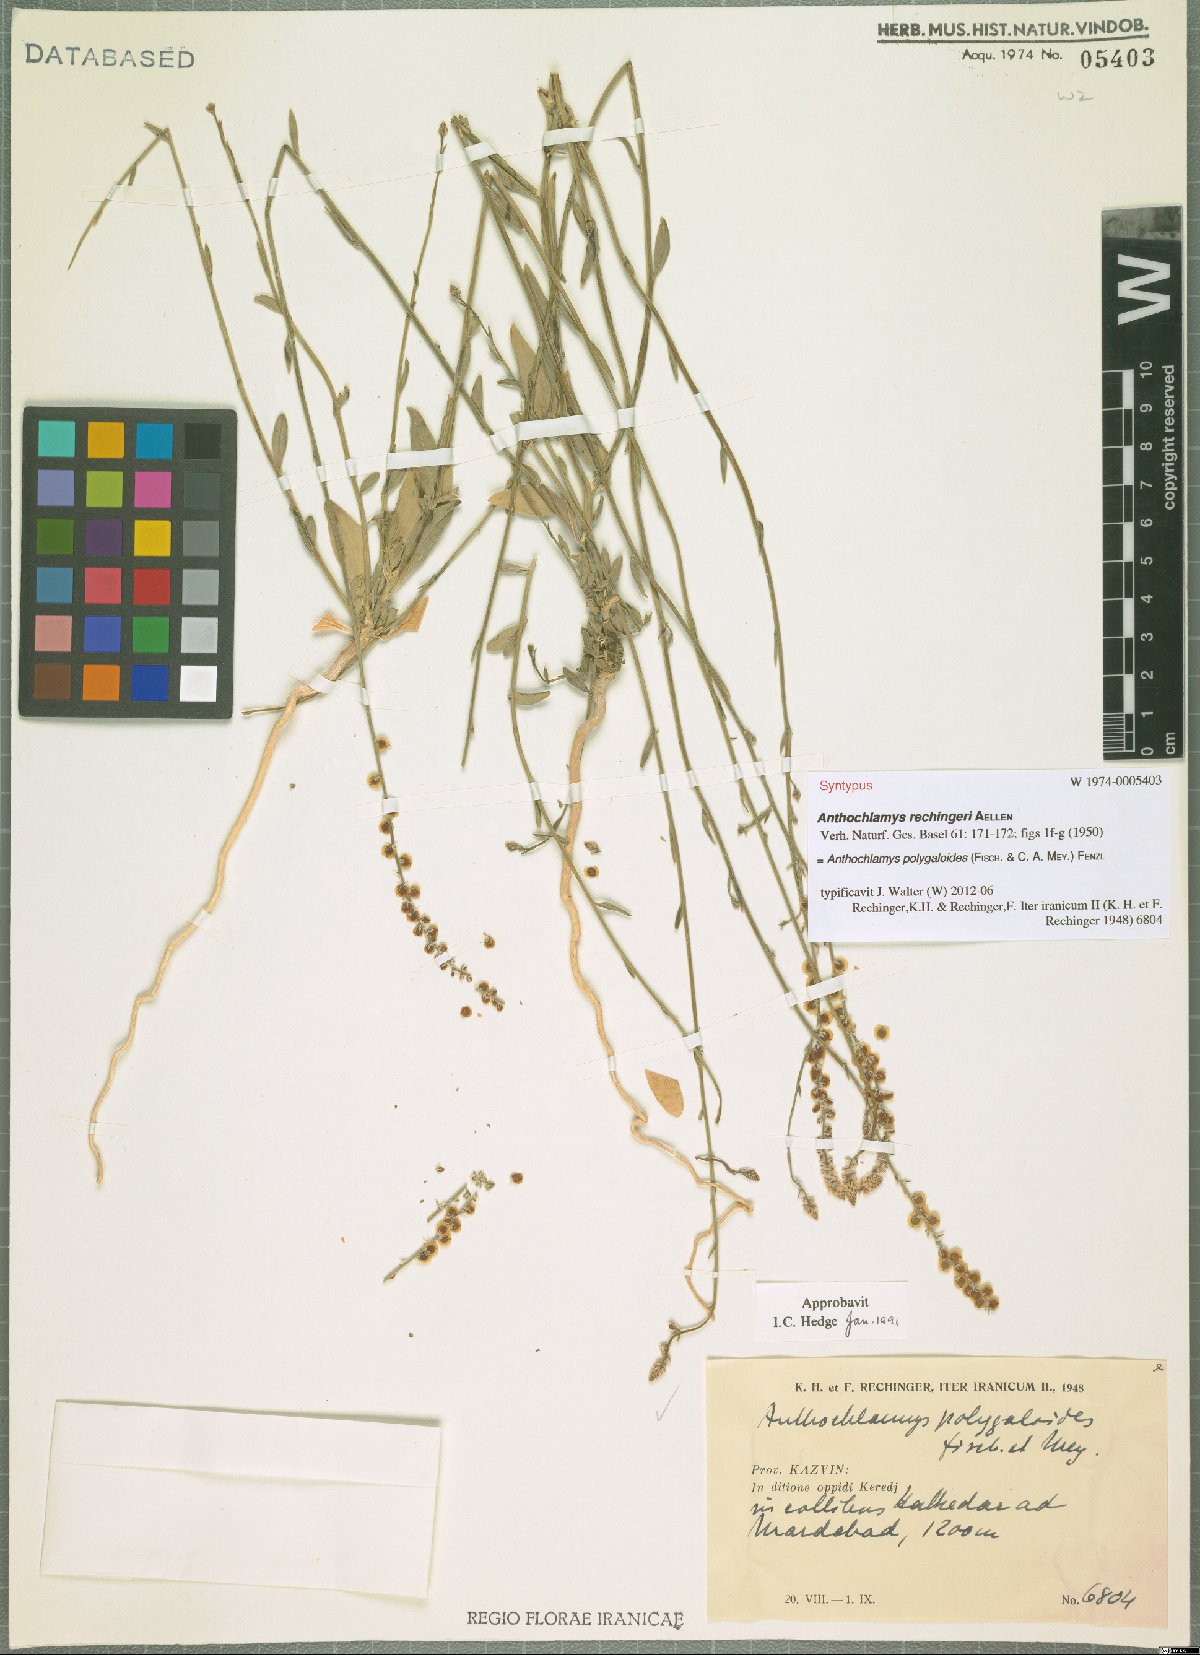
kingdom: Plantae
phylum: Tracheophyta
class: Magnoliopsida
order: Caryophyllales
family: Amaranthaceae
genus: Anthochlamys
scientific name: Anthochlamys polygaloides
